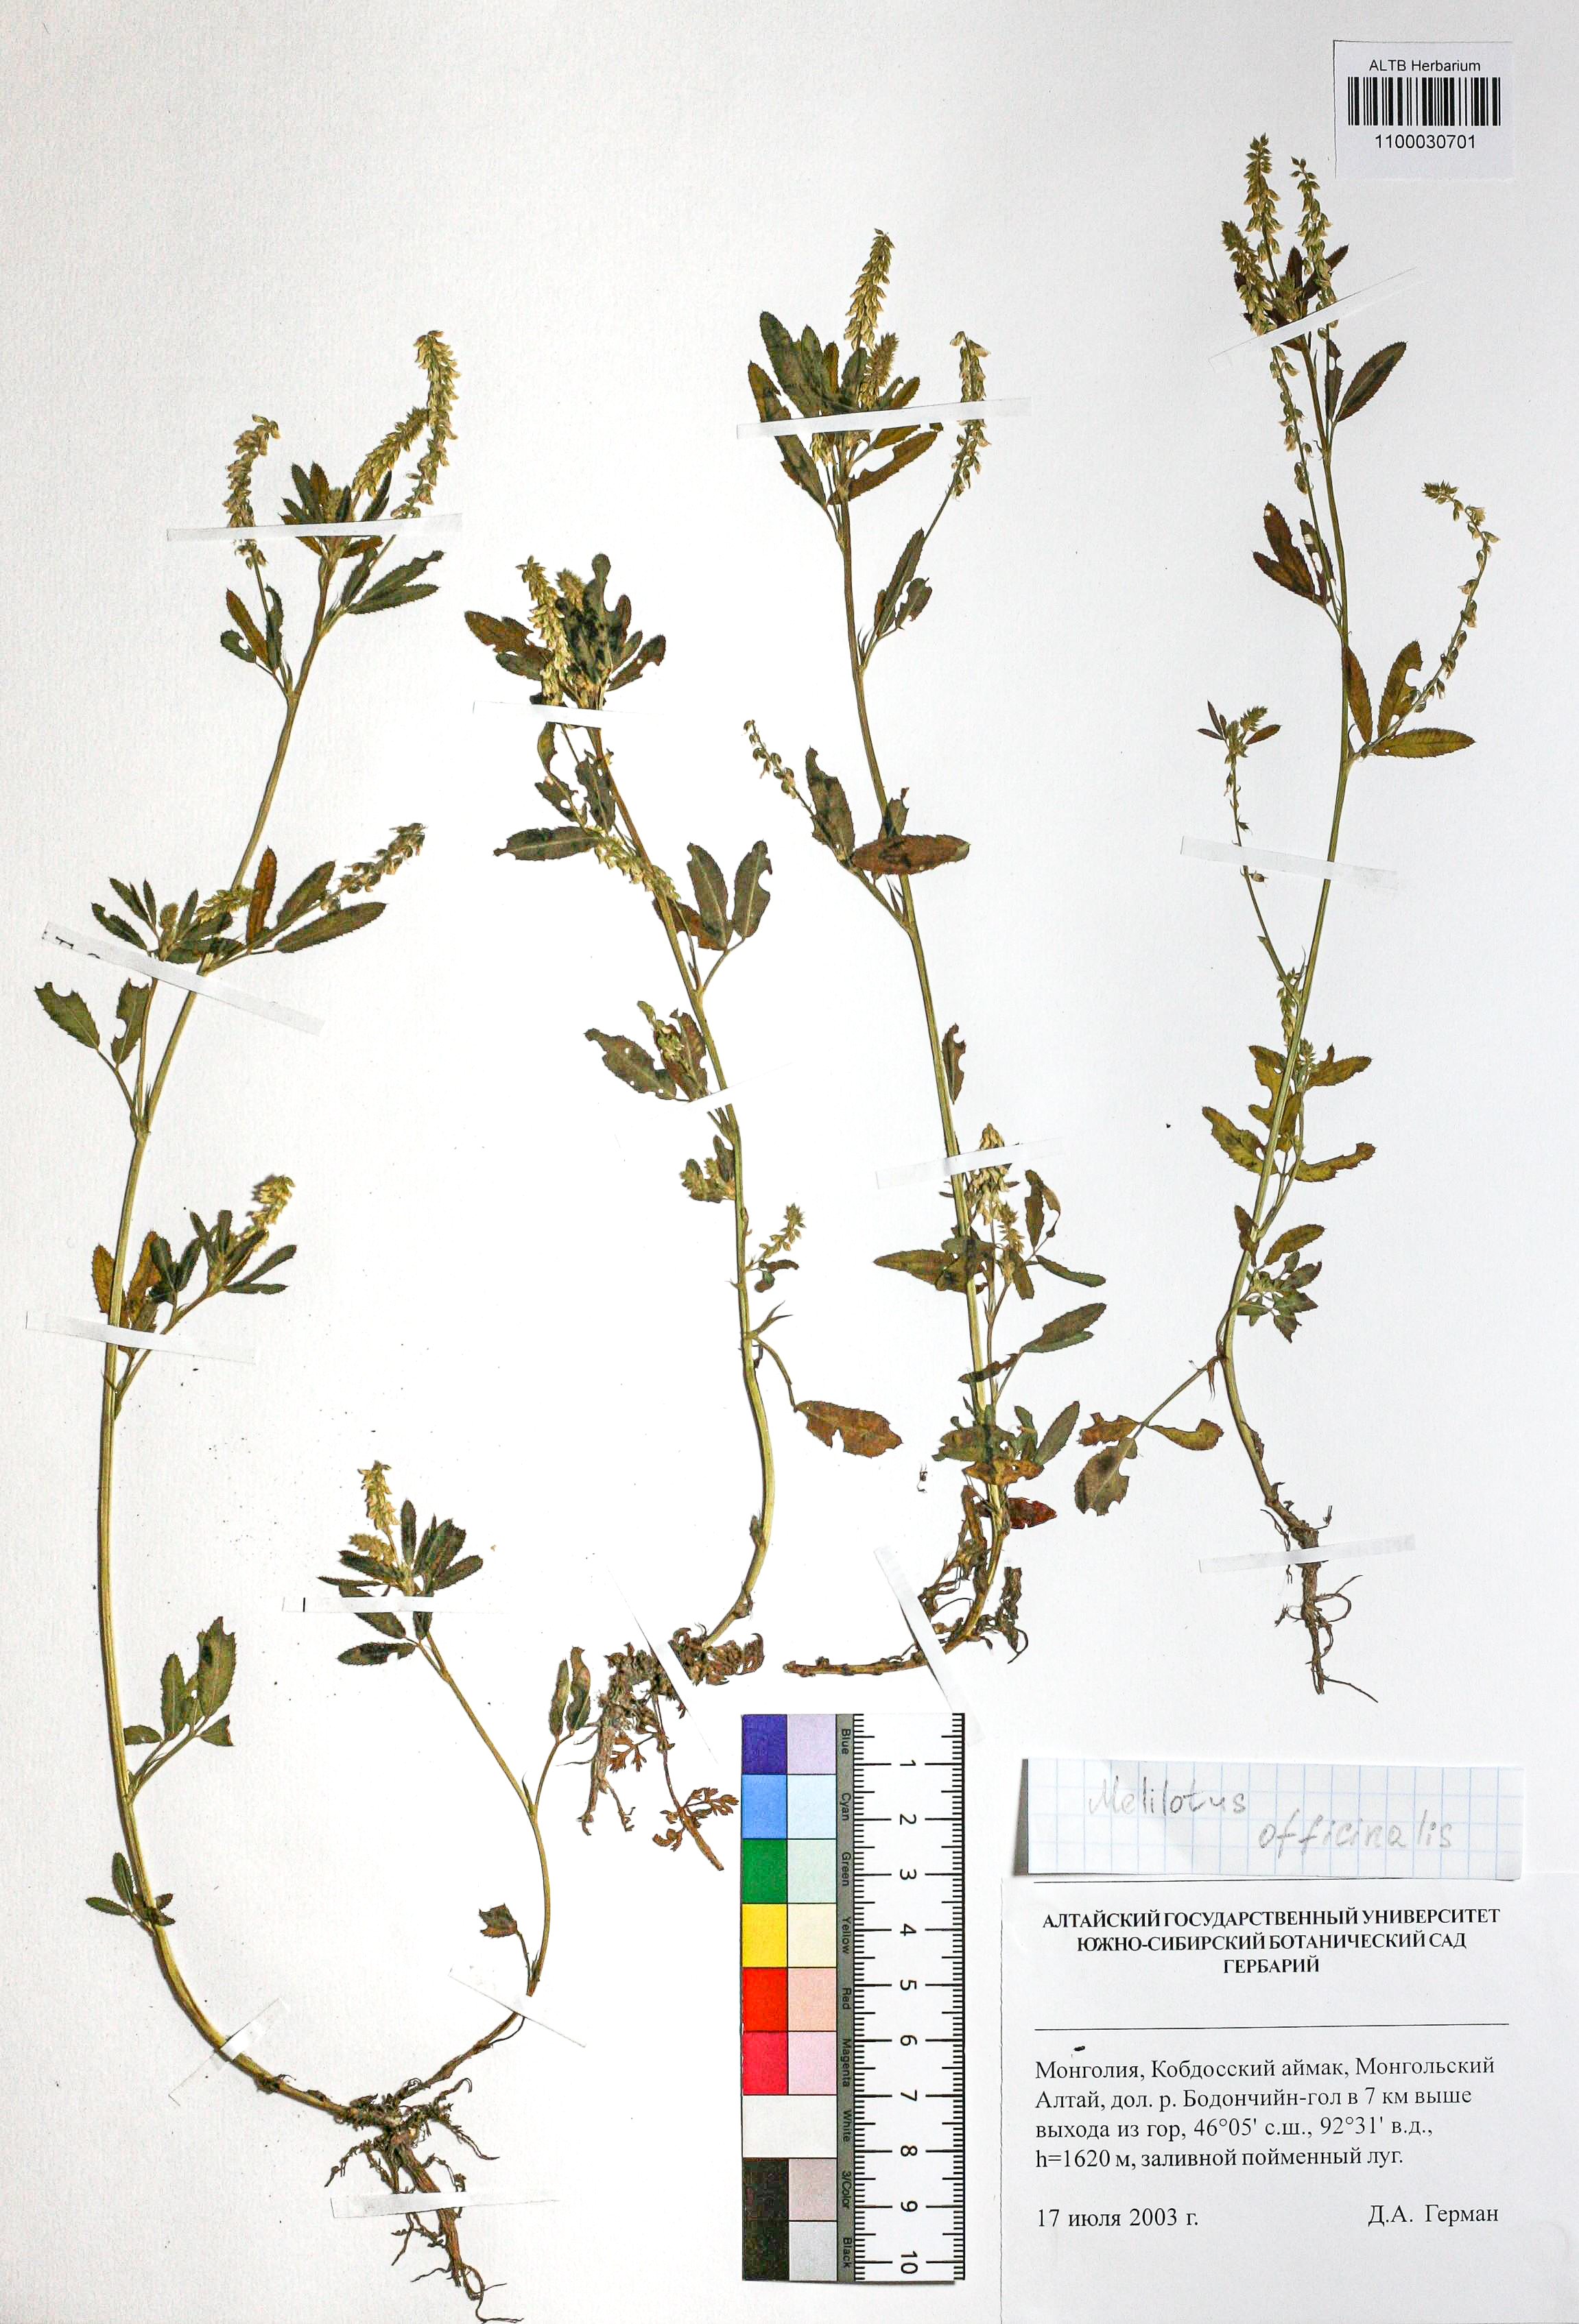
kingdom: Plantae
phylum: Tracheophyta
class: Magnoliopsida
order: Fabales
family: Fabaceae
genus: Melilotus
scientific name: Melilotus officinalis
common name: Sweetclover
